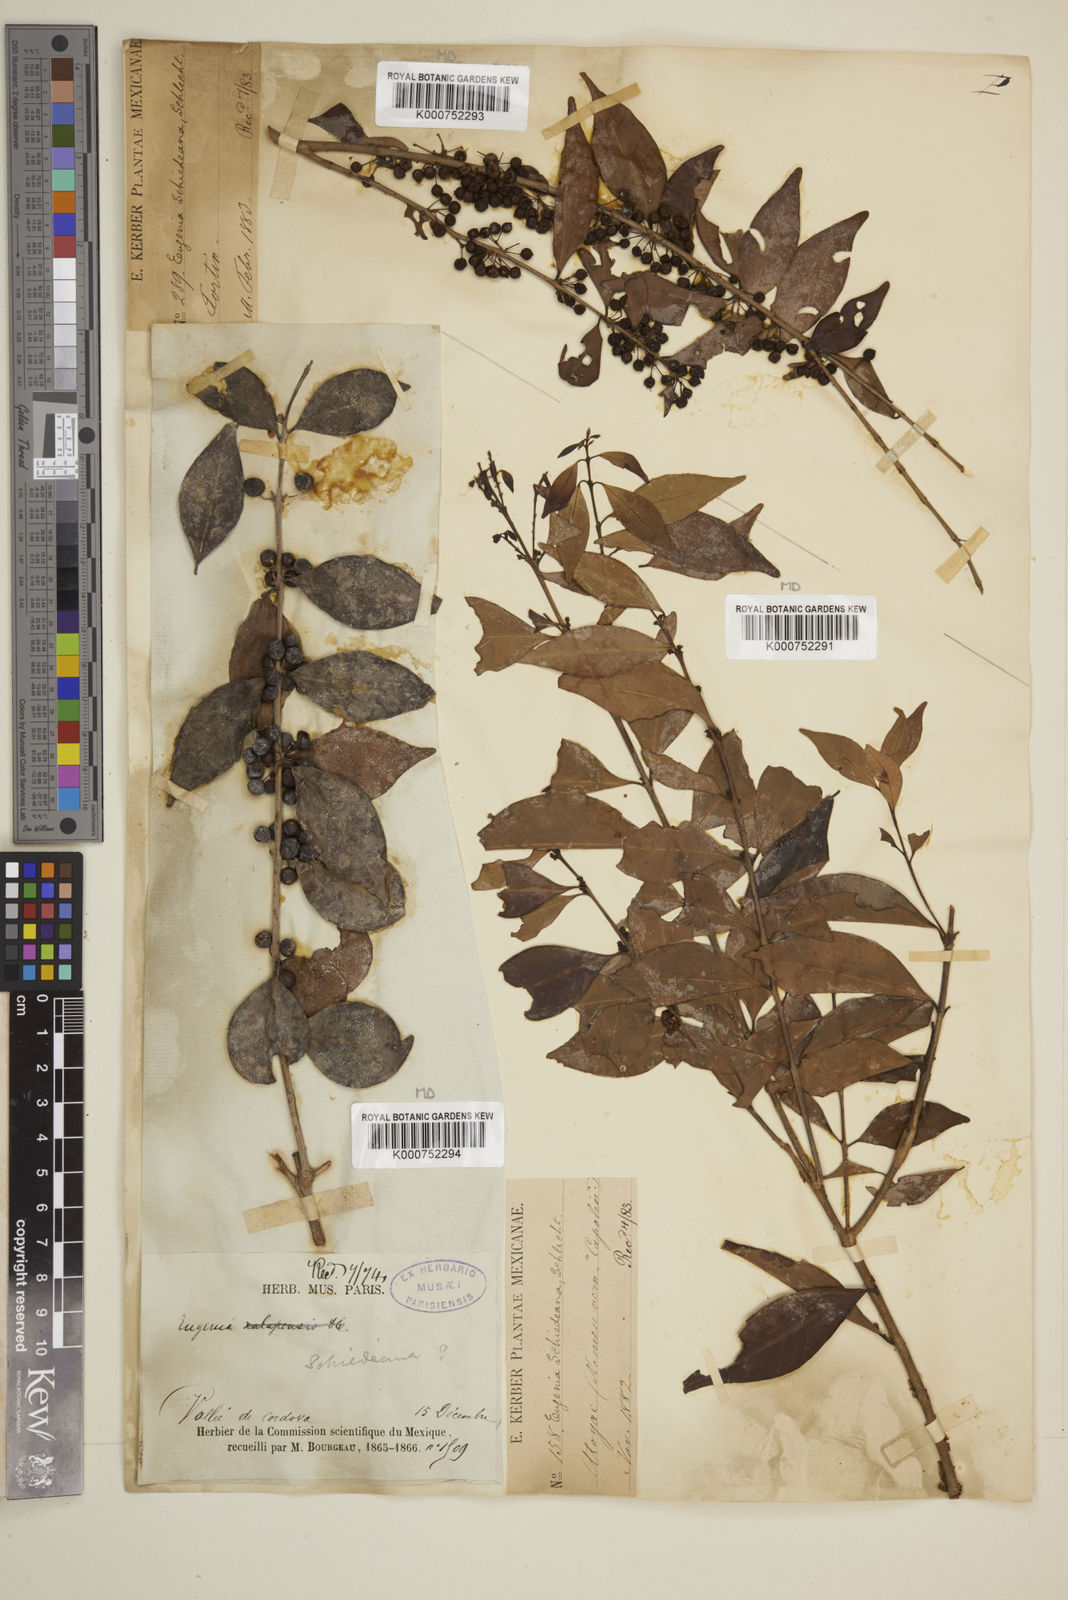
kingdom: Plantae
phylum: Tracheophyta
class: Magnoliopsida
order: Myrtales
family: Myrtaceae
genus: Eugenia
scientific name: Eugenia capuli
